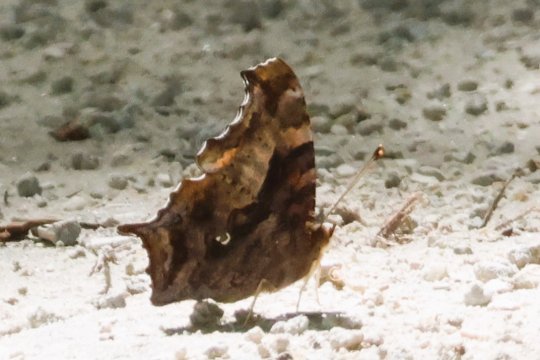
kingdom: Animalia
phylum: Arthropoda
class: Insecta
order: Lepidoptera
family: Nymphalidae
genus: Polygonia
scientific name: Polygonia interrogationis
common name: Question Mark
